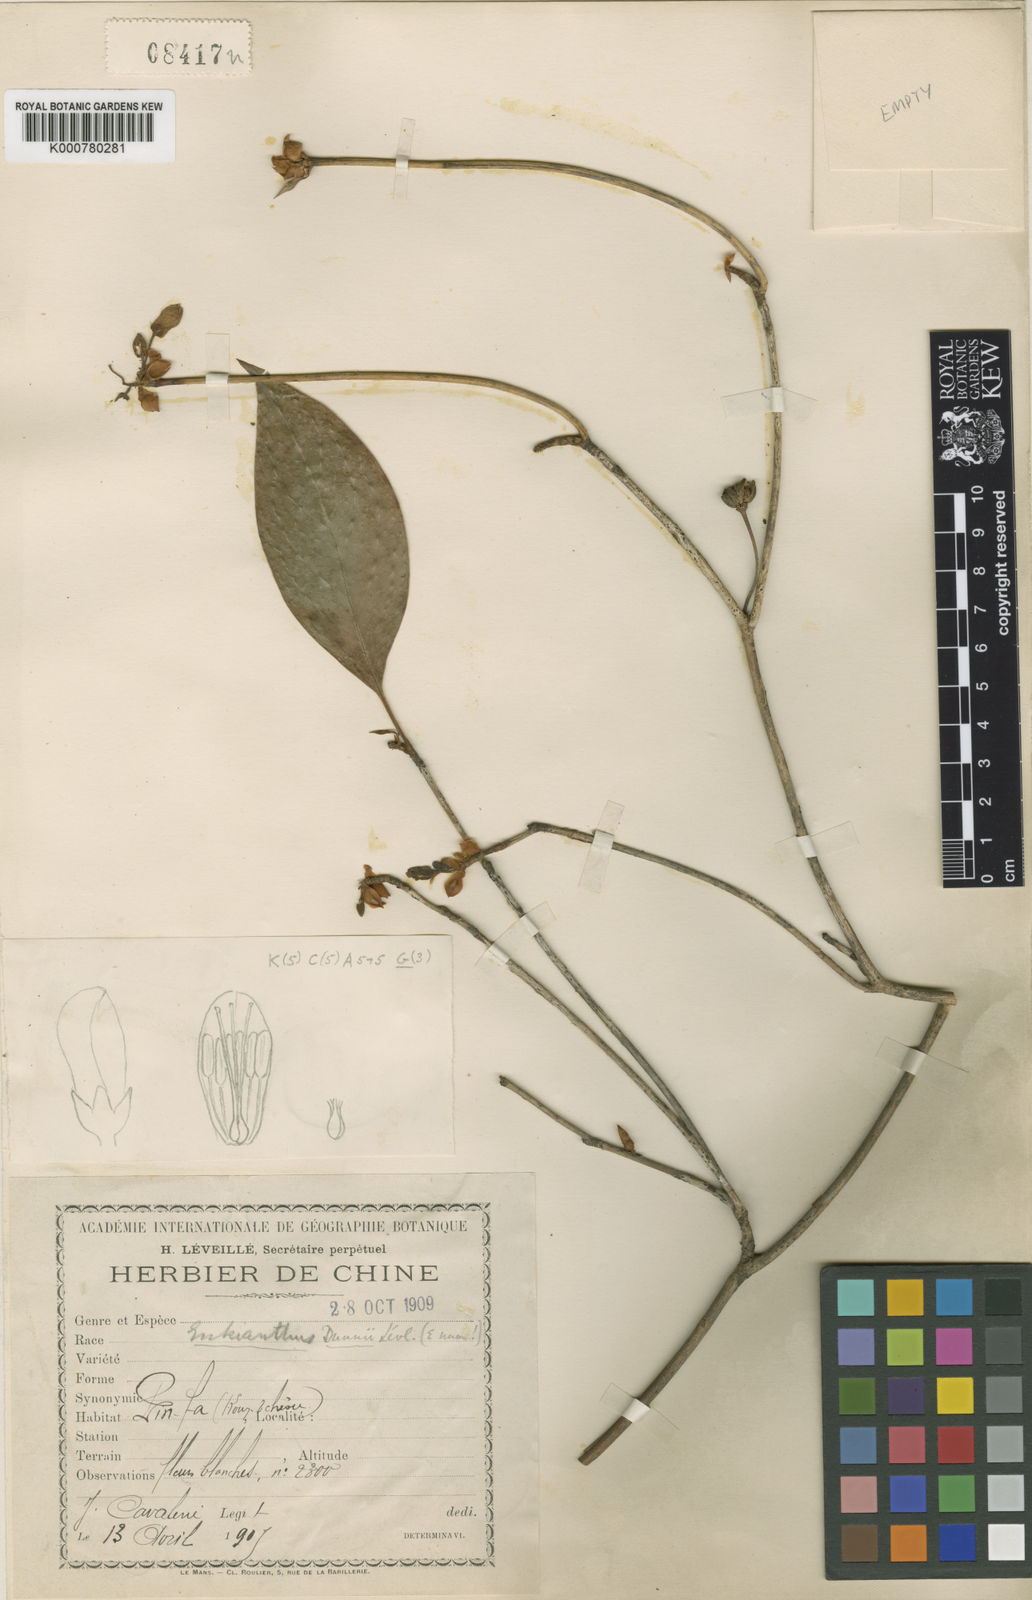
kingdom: Plantae
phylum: Tracheophyta
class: Magnoliopsida
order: Ericales
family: Ericaceae
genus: Enkianthus
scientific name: Enkianthus serrulatus
